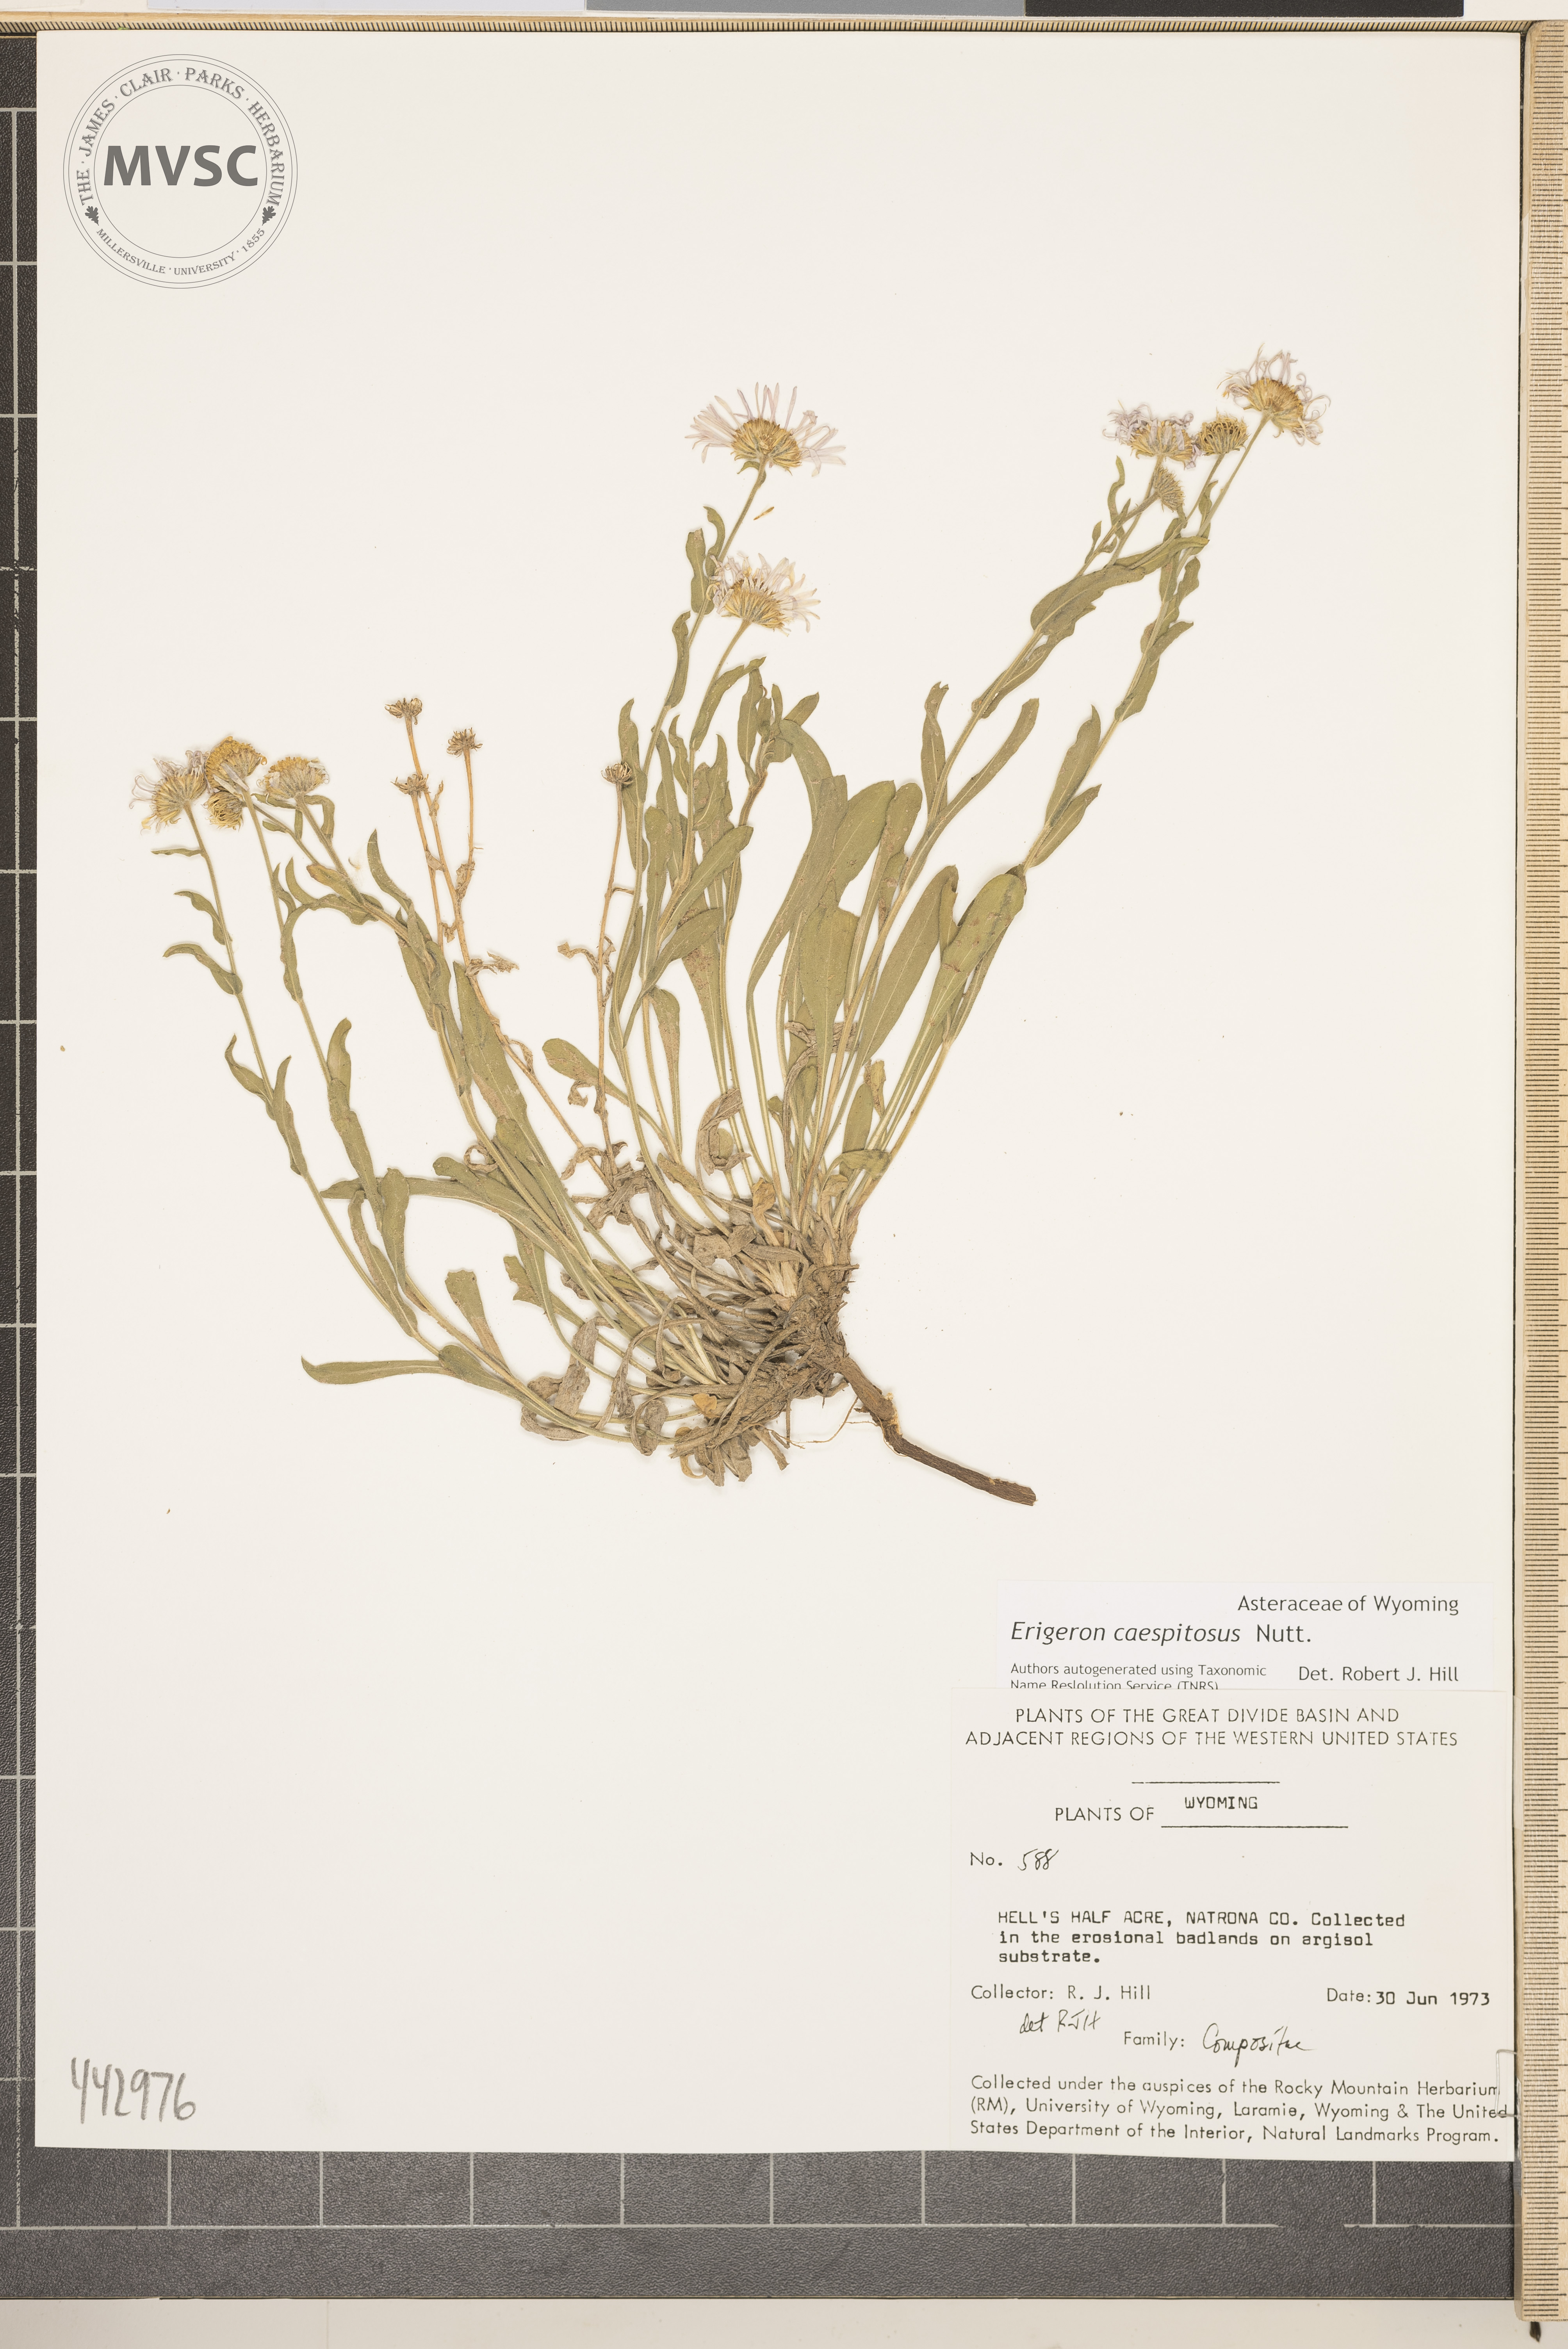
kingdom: Plantae
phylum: Tracheophyta
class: Magnoliopsida
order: Asterales
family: Asteraceae
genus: Erigeron
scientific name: Erigeron caespitosus
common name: Tufted fleabane
